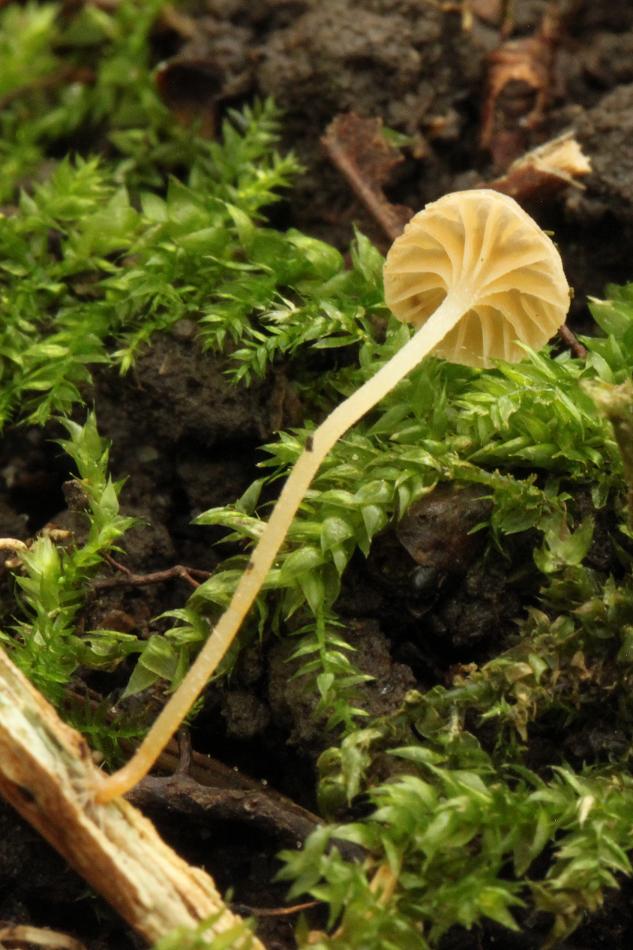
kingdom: Fungi
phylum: Basidiomycota
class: Agaricomycetes
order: Agaricales
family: Porotheleaceae
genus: Phloeomana
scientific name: Phloeomana clavata
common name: brunbladet huesvamp
